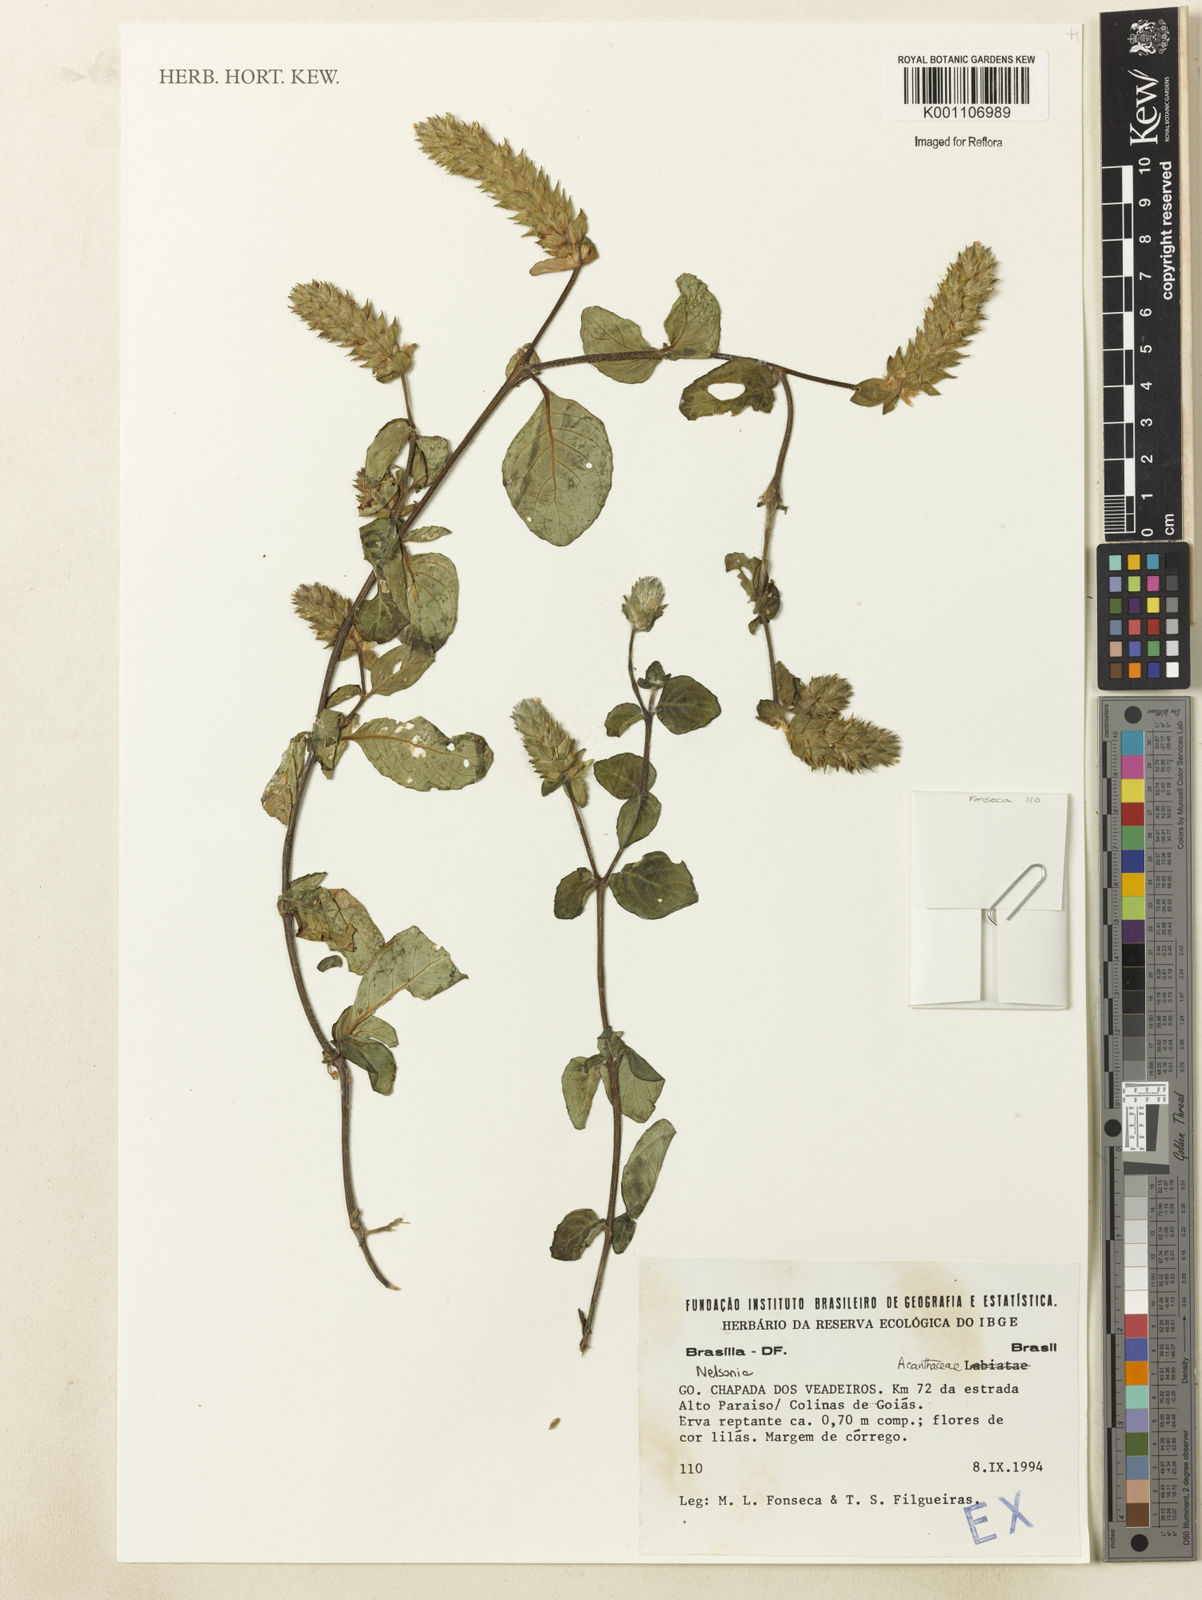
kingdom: Plantae
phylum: Tracheophyta
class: Magnoliopsida
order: Lamiales
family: Acanthaceae
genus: Nelsonia
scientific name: Nelsonia canescens
